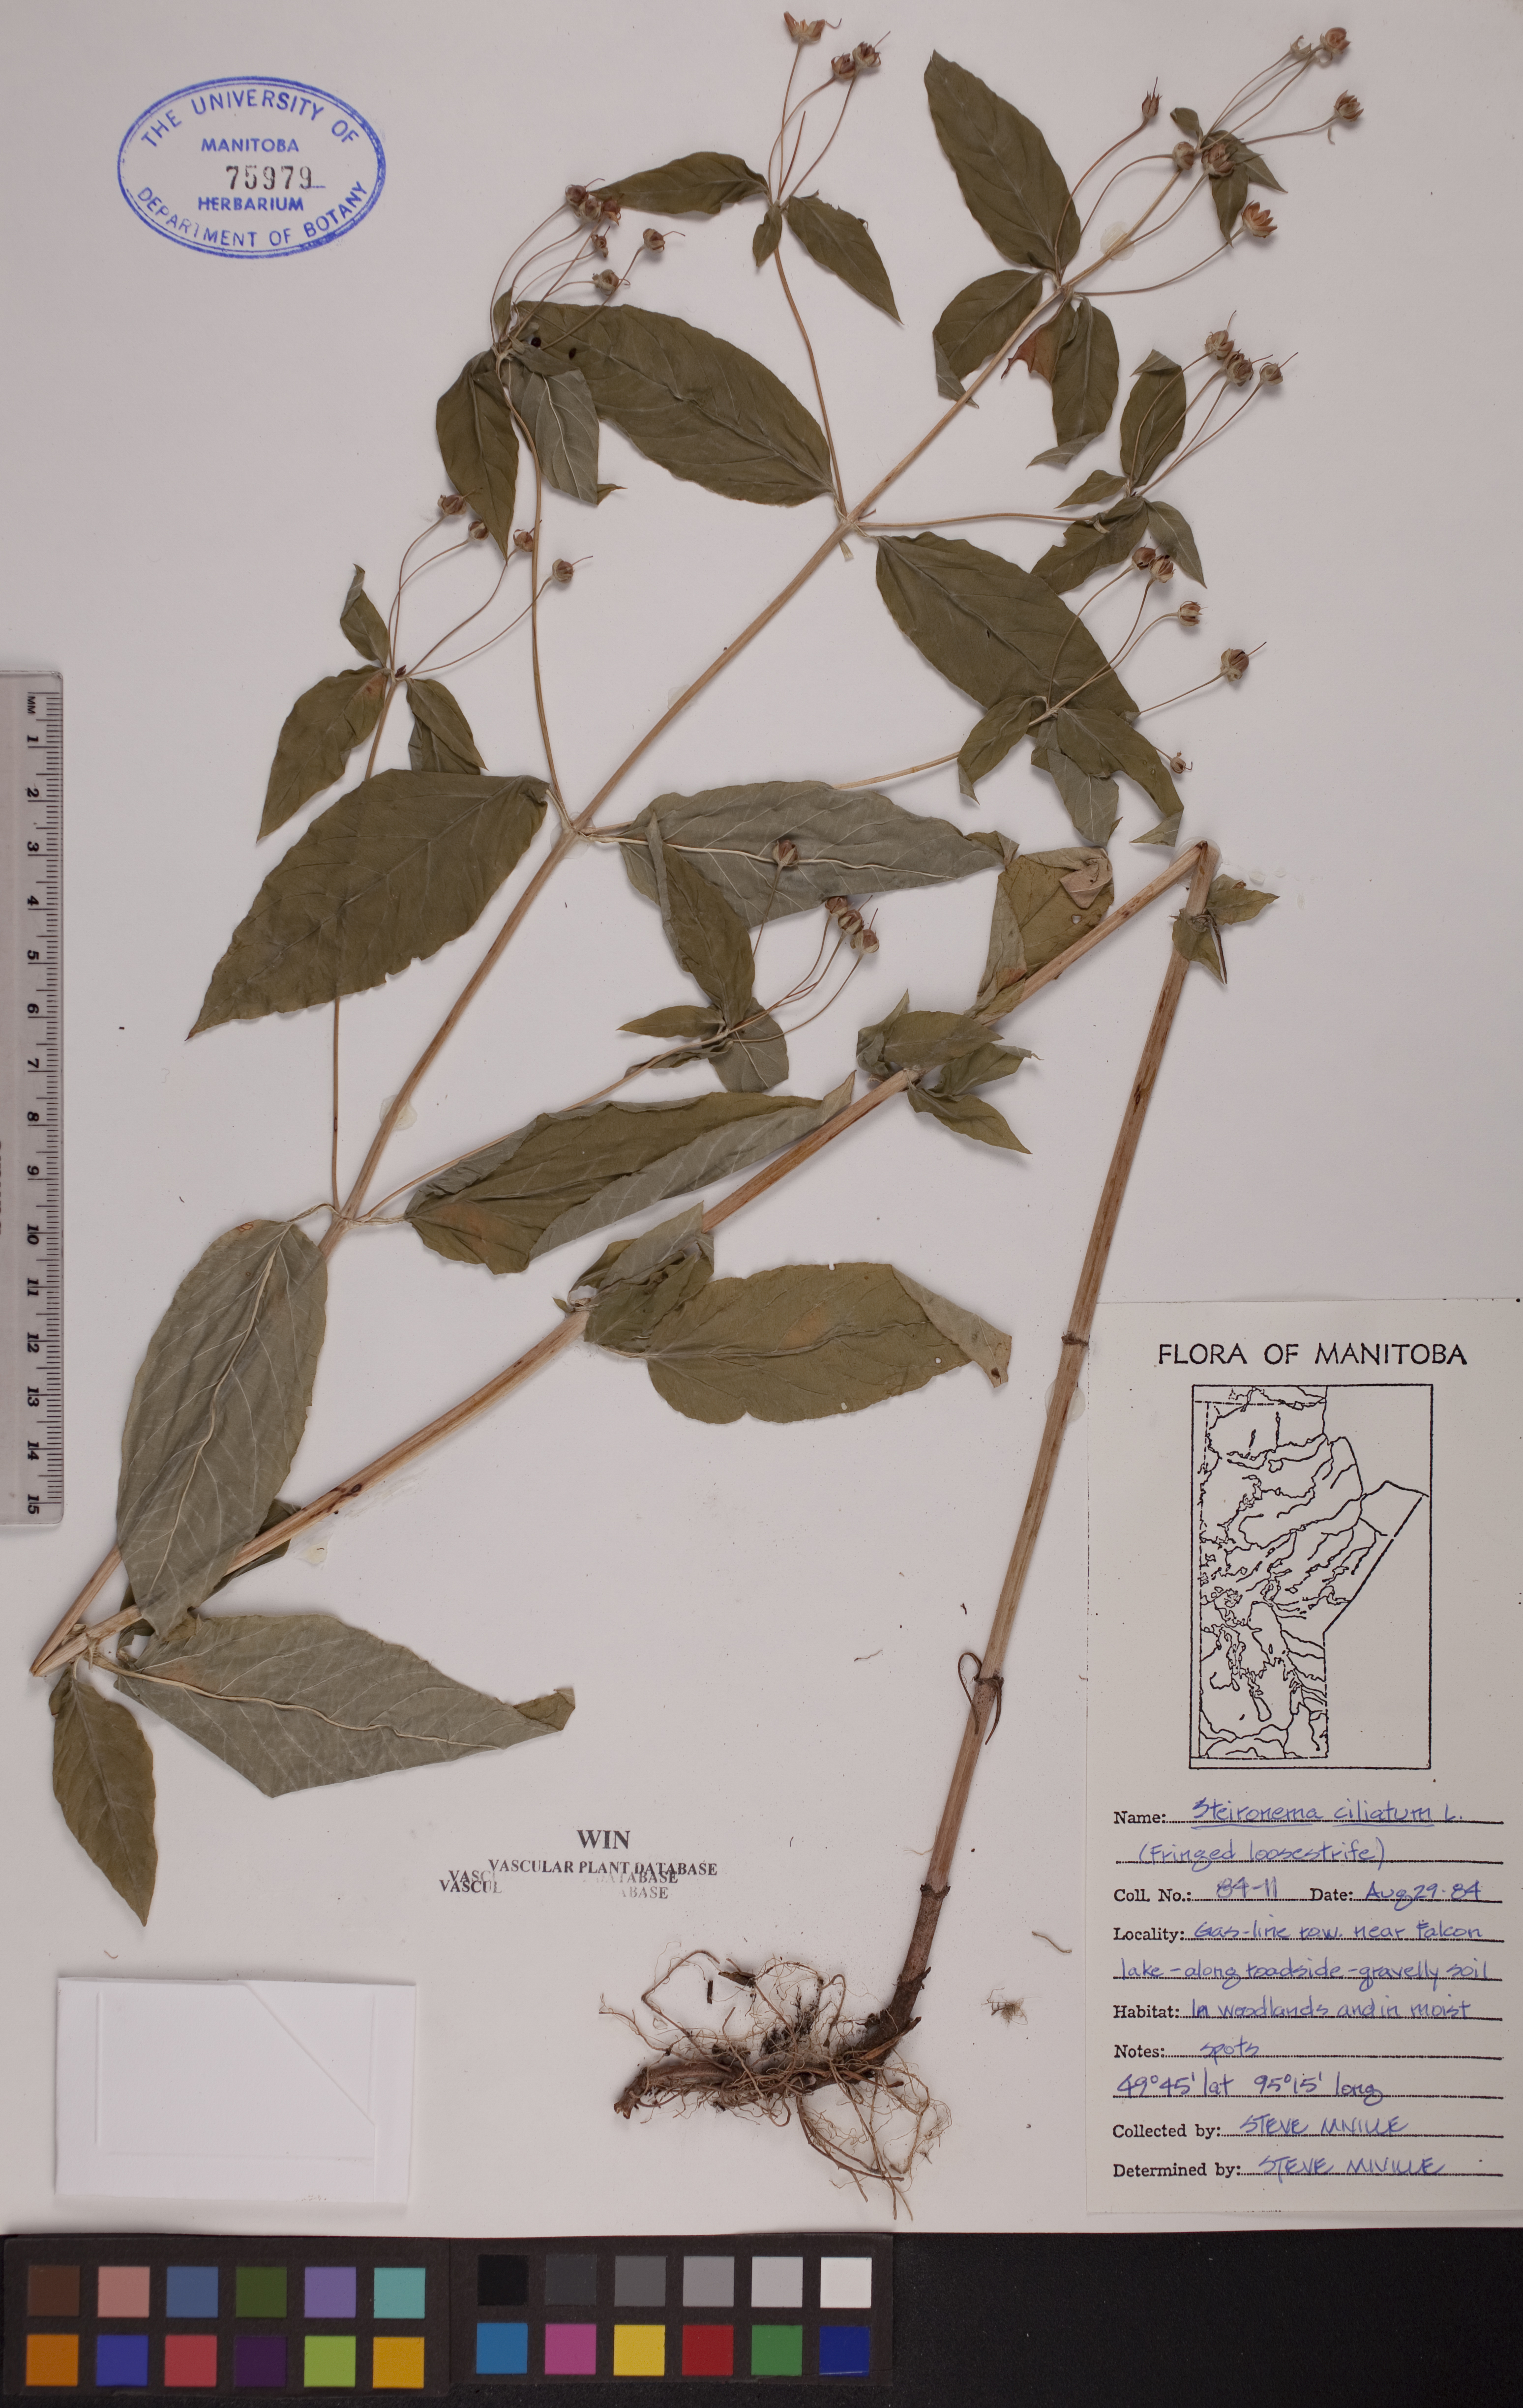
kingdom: Plantae
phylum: Tracheophyta
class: Magnoliopsida
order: Ericales
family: Primulaceae
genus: Lysimachia
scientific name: Lysimachia ciliata
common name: Fringed loosestrife
